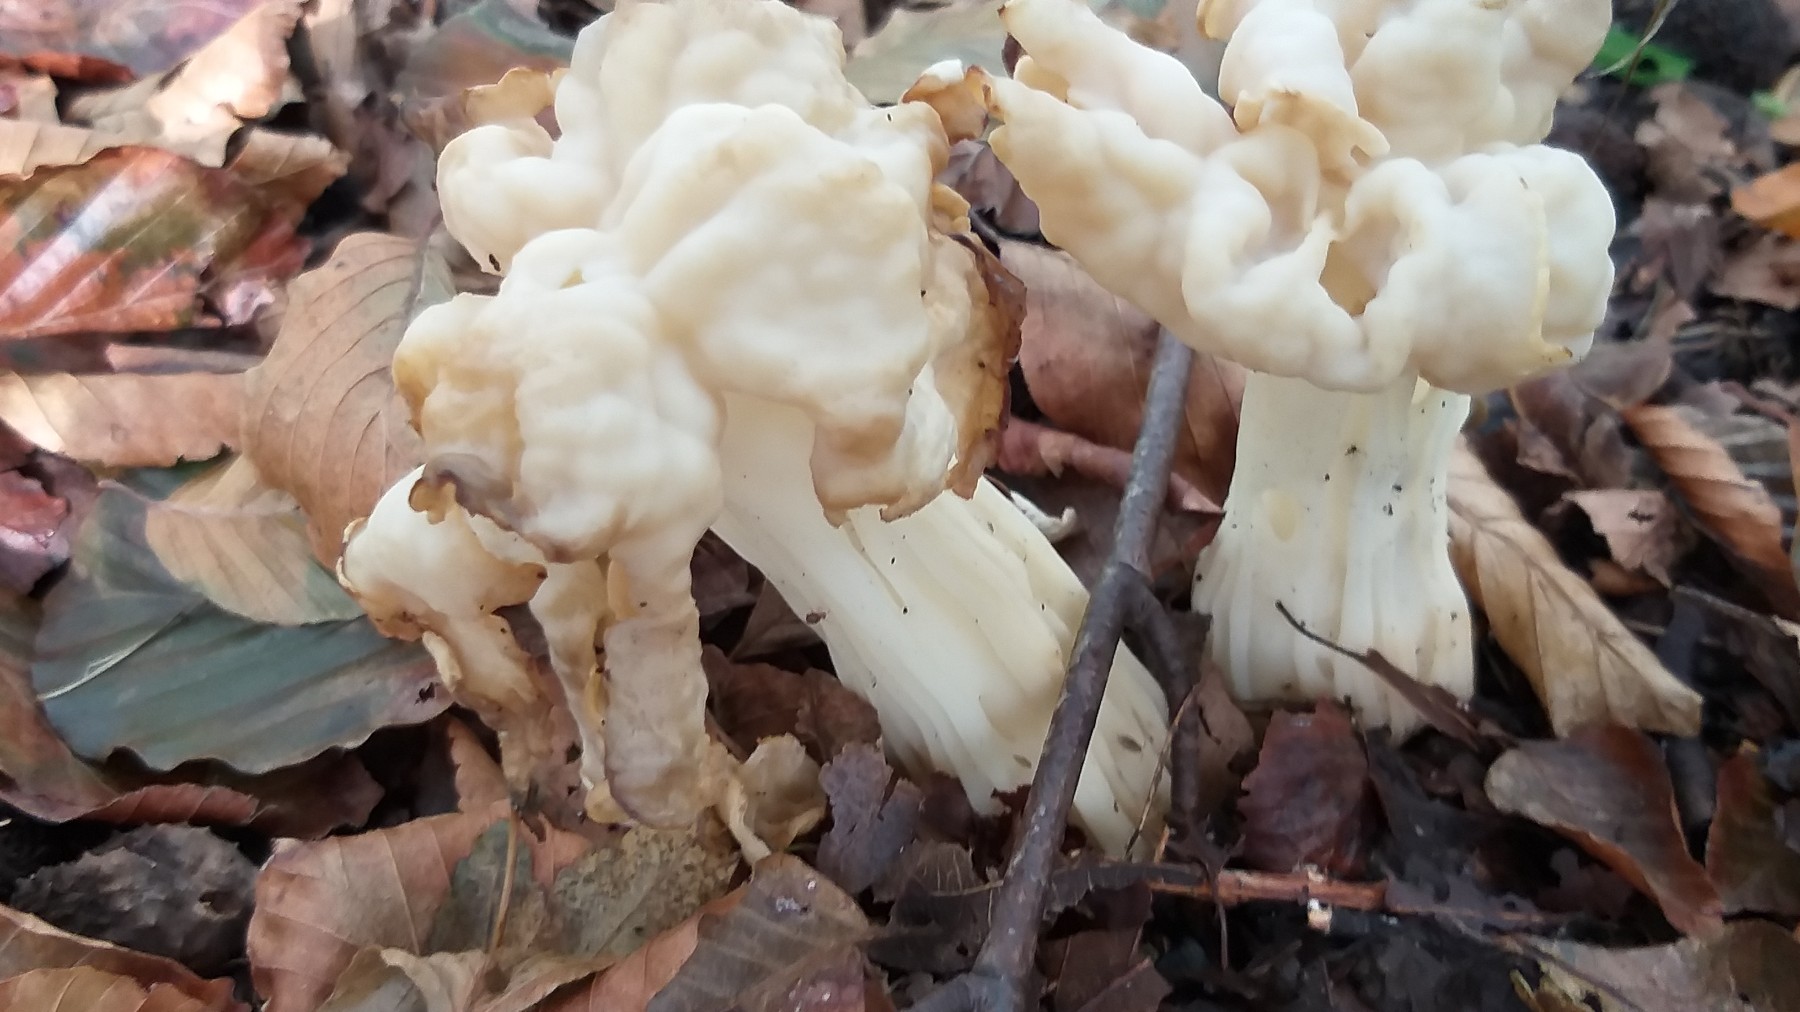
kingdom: Fungi
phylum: Ascomycota
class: Pezizomycetes
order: Pezizales
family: Helvellaceae
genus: Helvella
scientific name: Helvella crispa
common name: kruset foldhat
